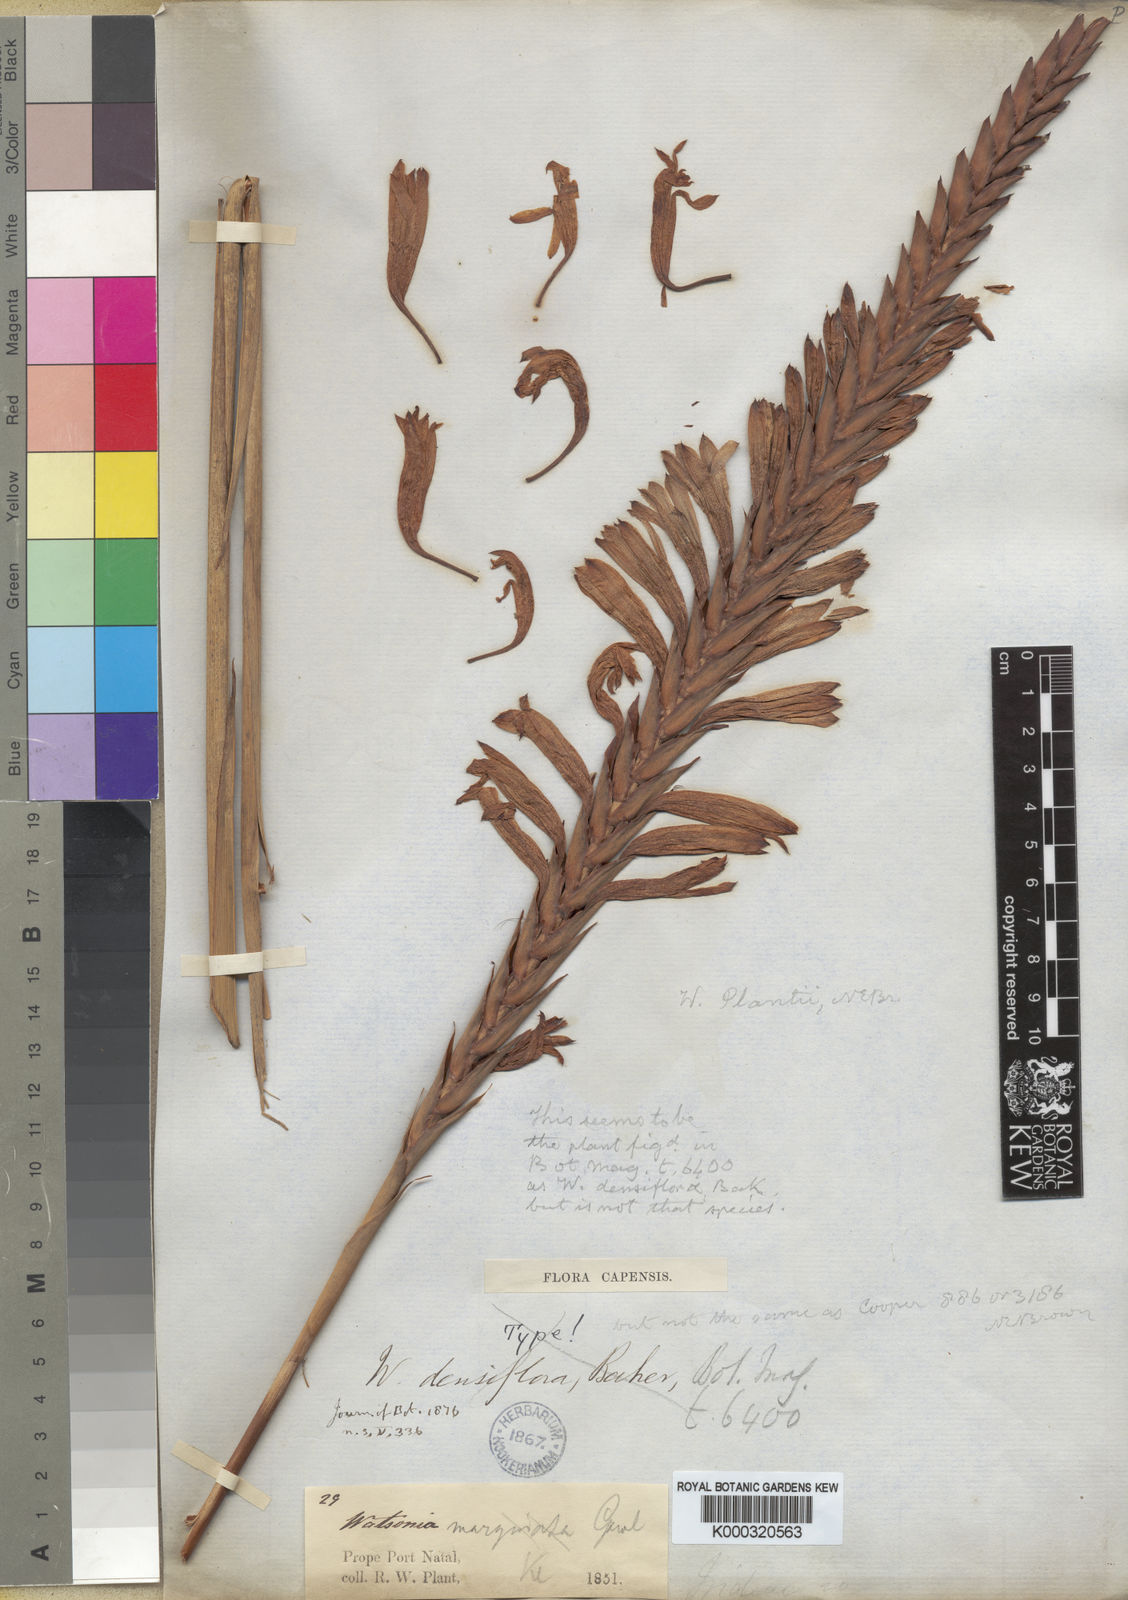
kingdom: Plantae
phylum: Tracheophyta
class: Liliopsida
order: Asparagales
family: Iridaceae
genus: Watsonia
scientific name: Watsonia densiflora
